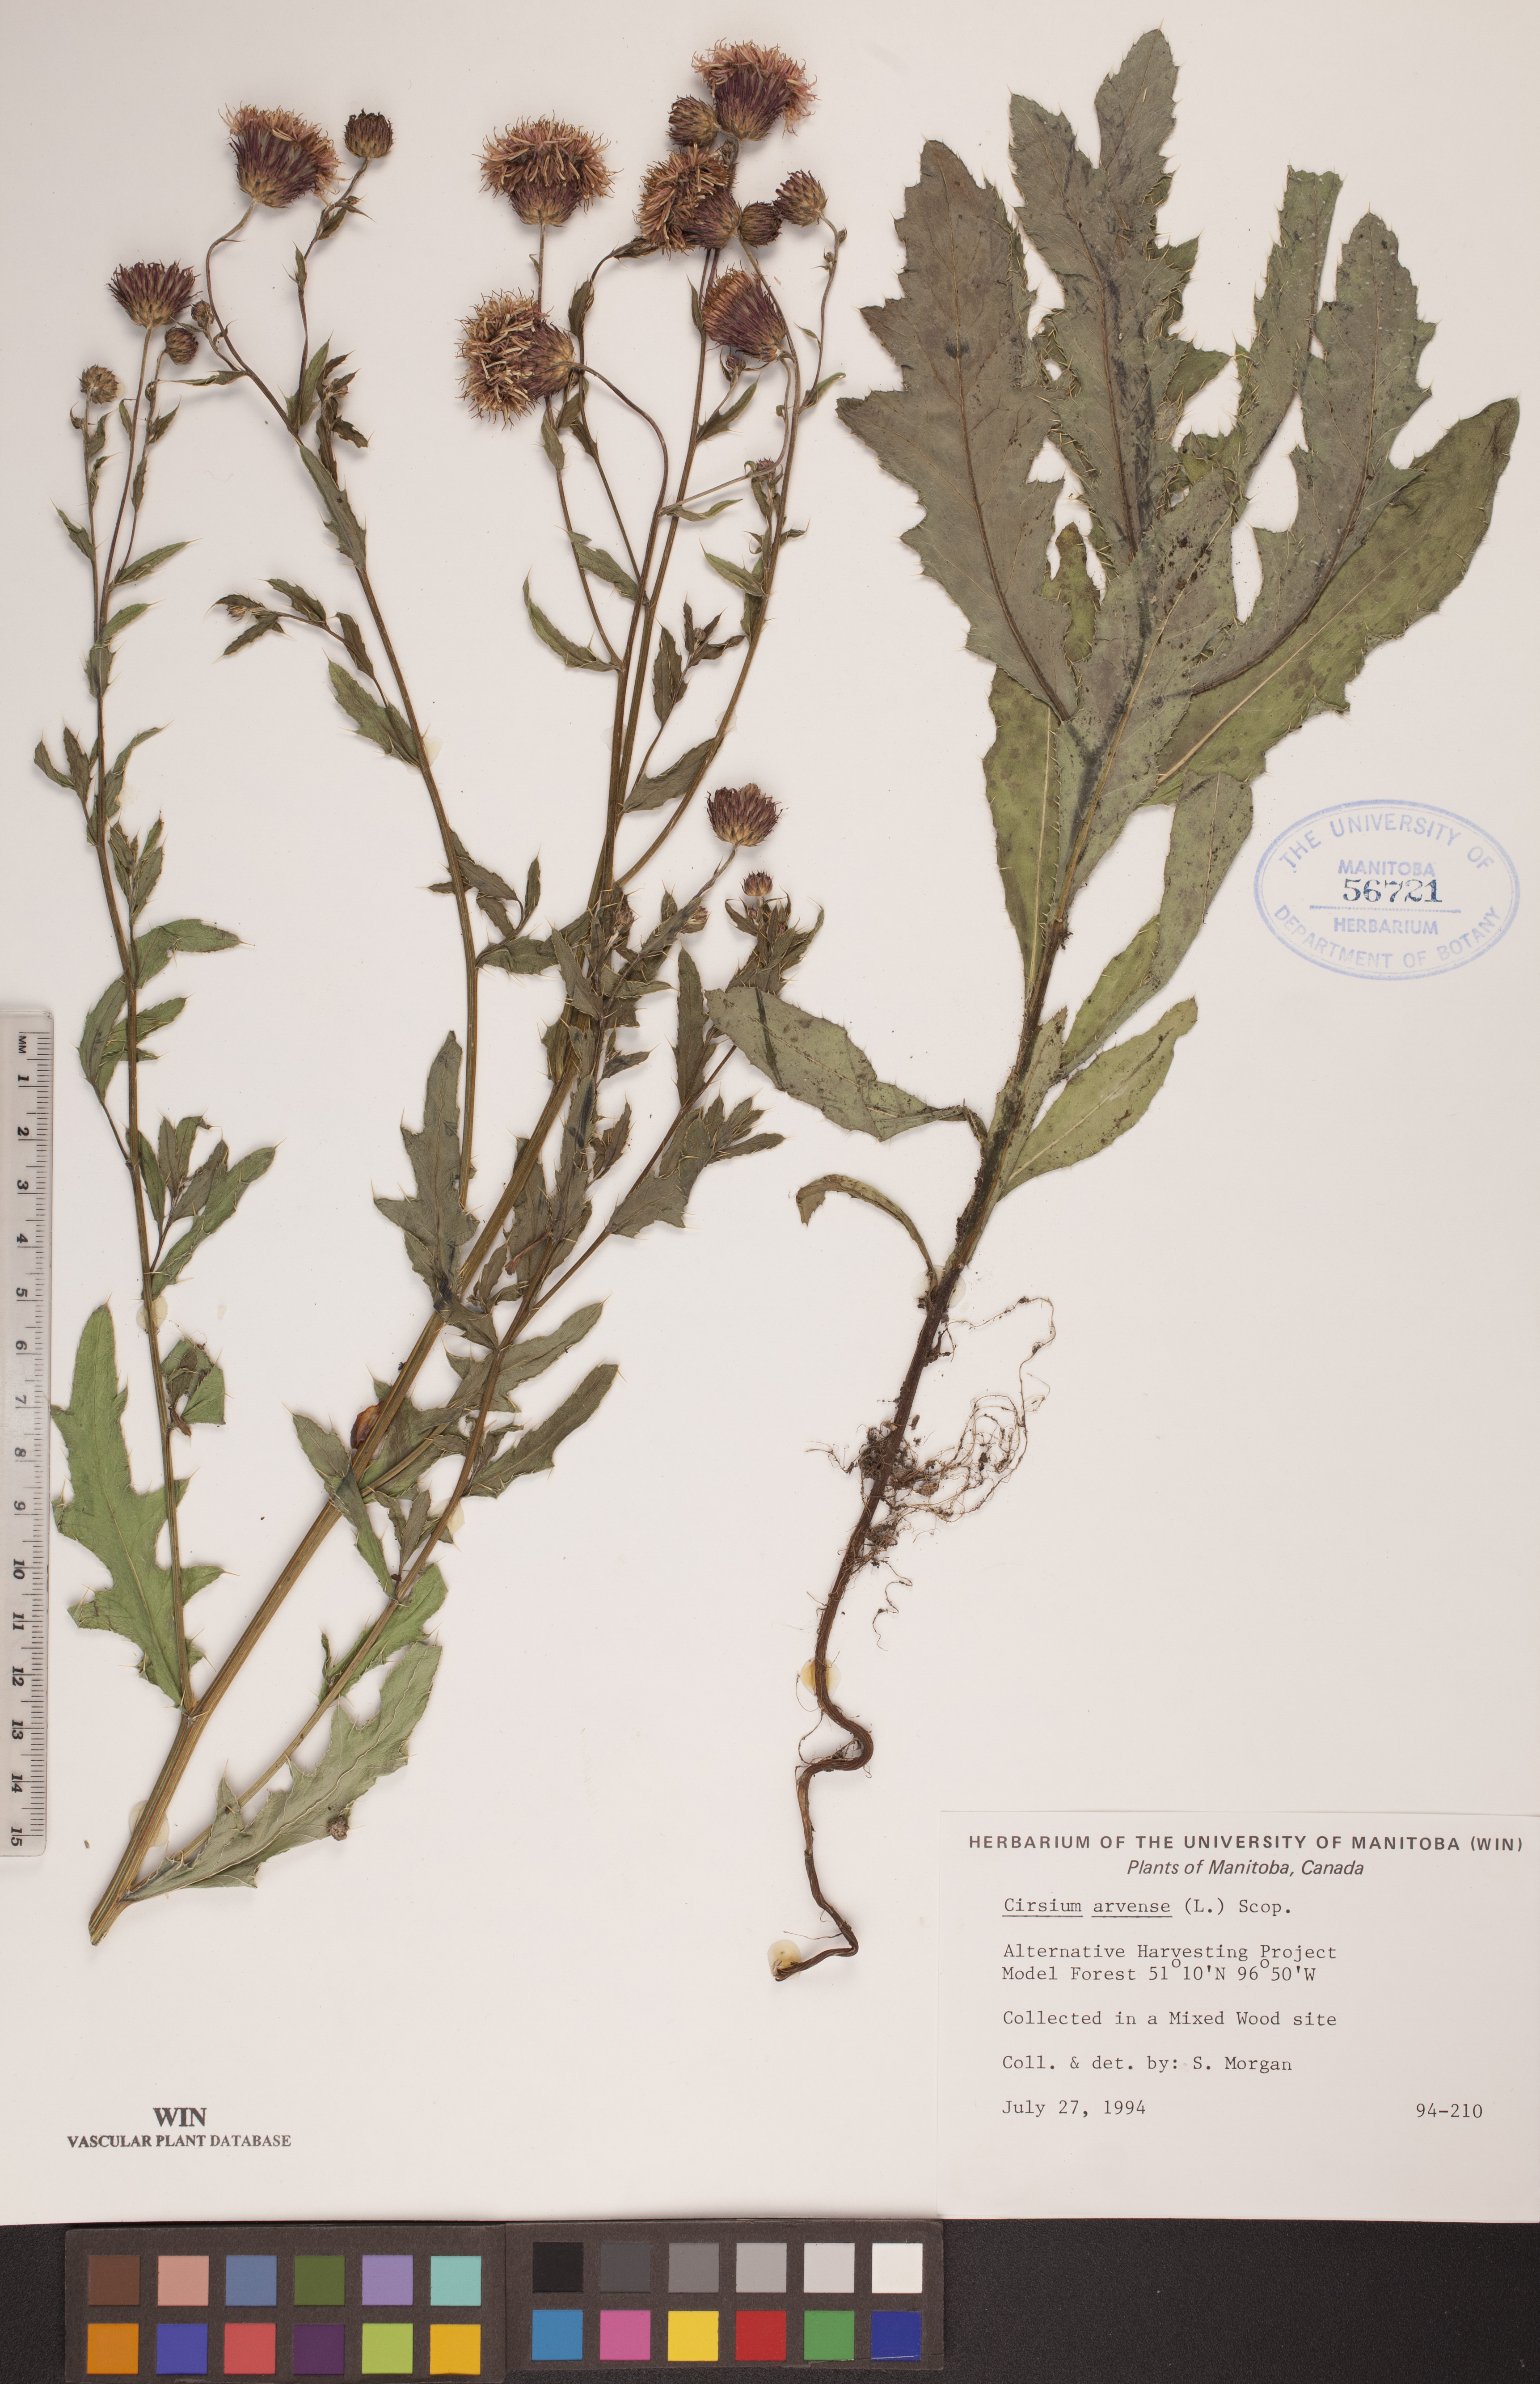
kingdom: Plantae
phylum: Tracheophyta
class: Magnoliopsida
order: Asterales
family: Asteraceae
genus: Cirsium
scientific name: Cirsium arvense
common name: Creeping thistle
